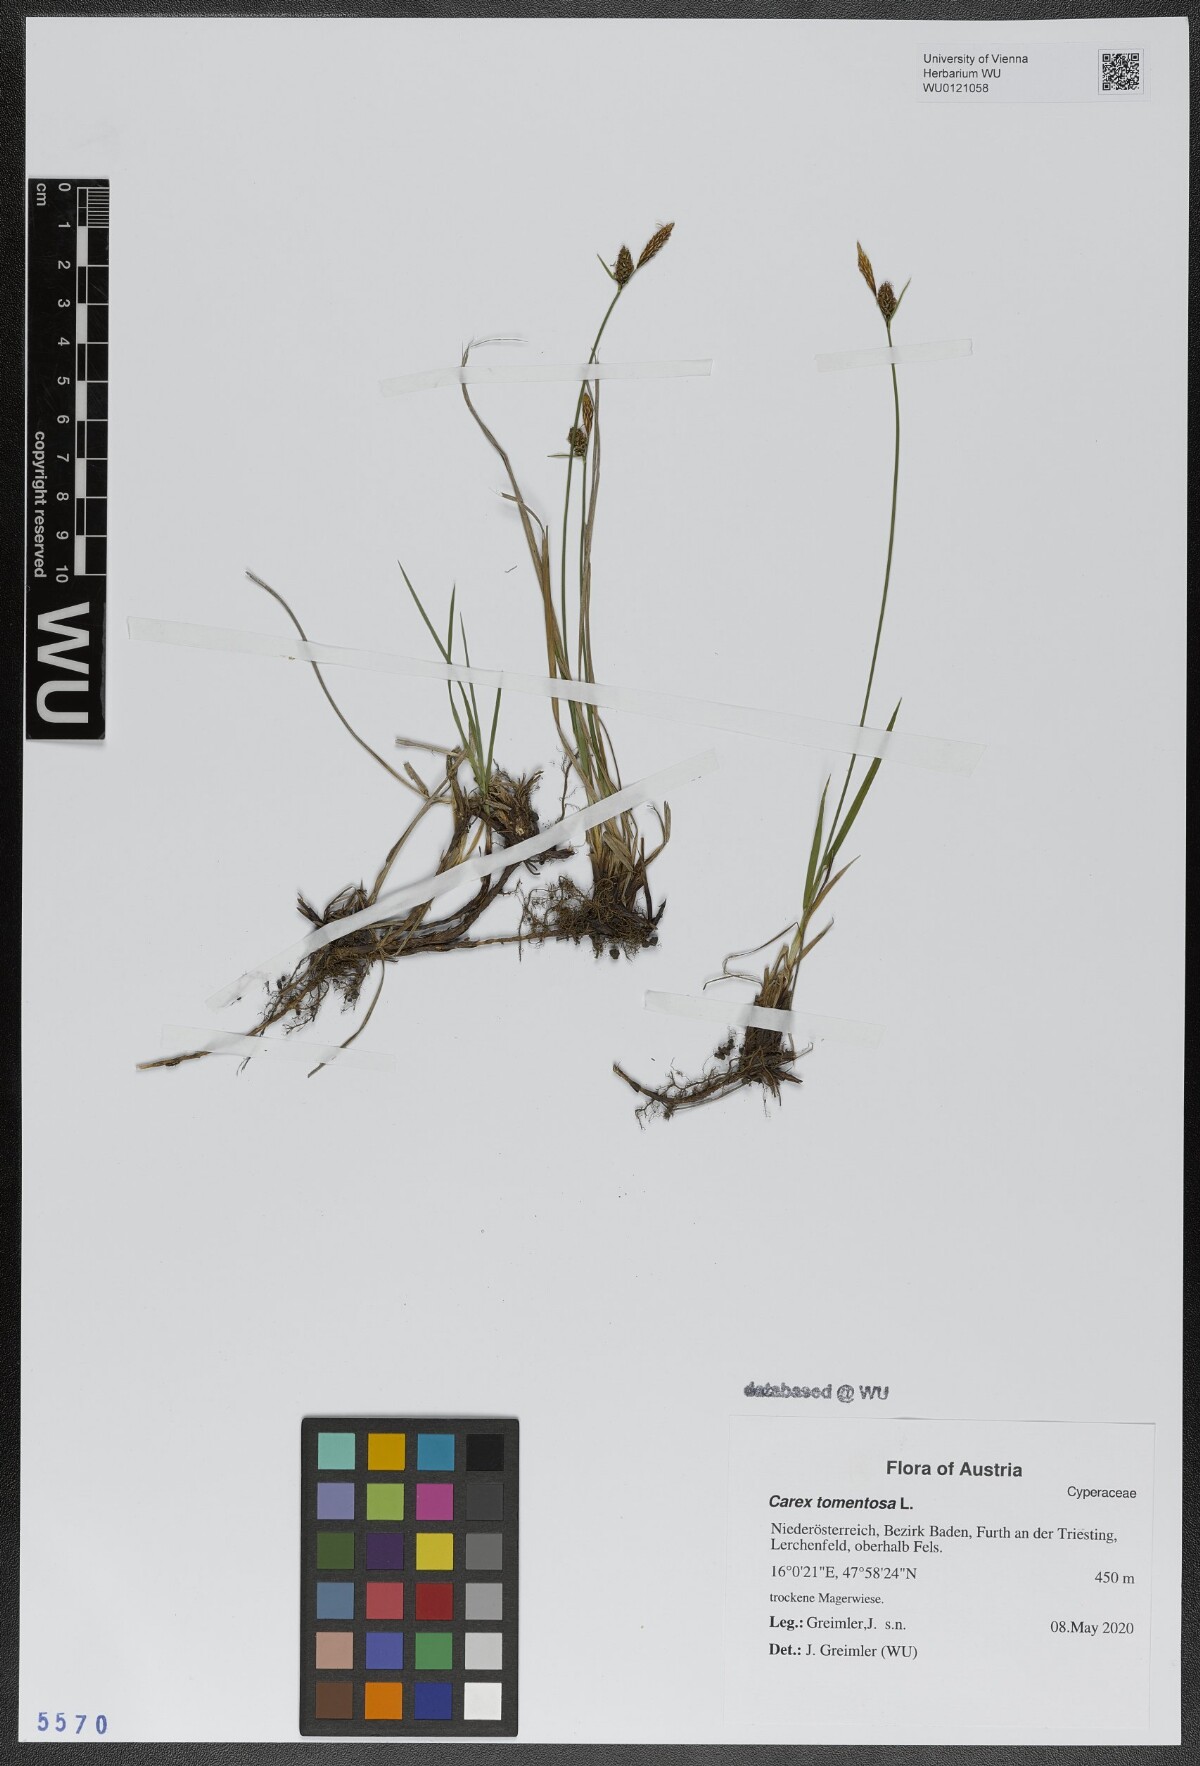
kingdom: Plantae
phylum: Tracheophyta
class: Liliopsida
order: Poales
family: Cyperaceae
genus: Carex
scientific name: Carex tomentosa
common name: Downy-fruited sedge
